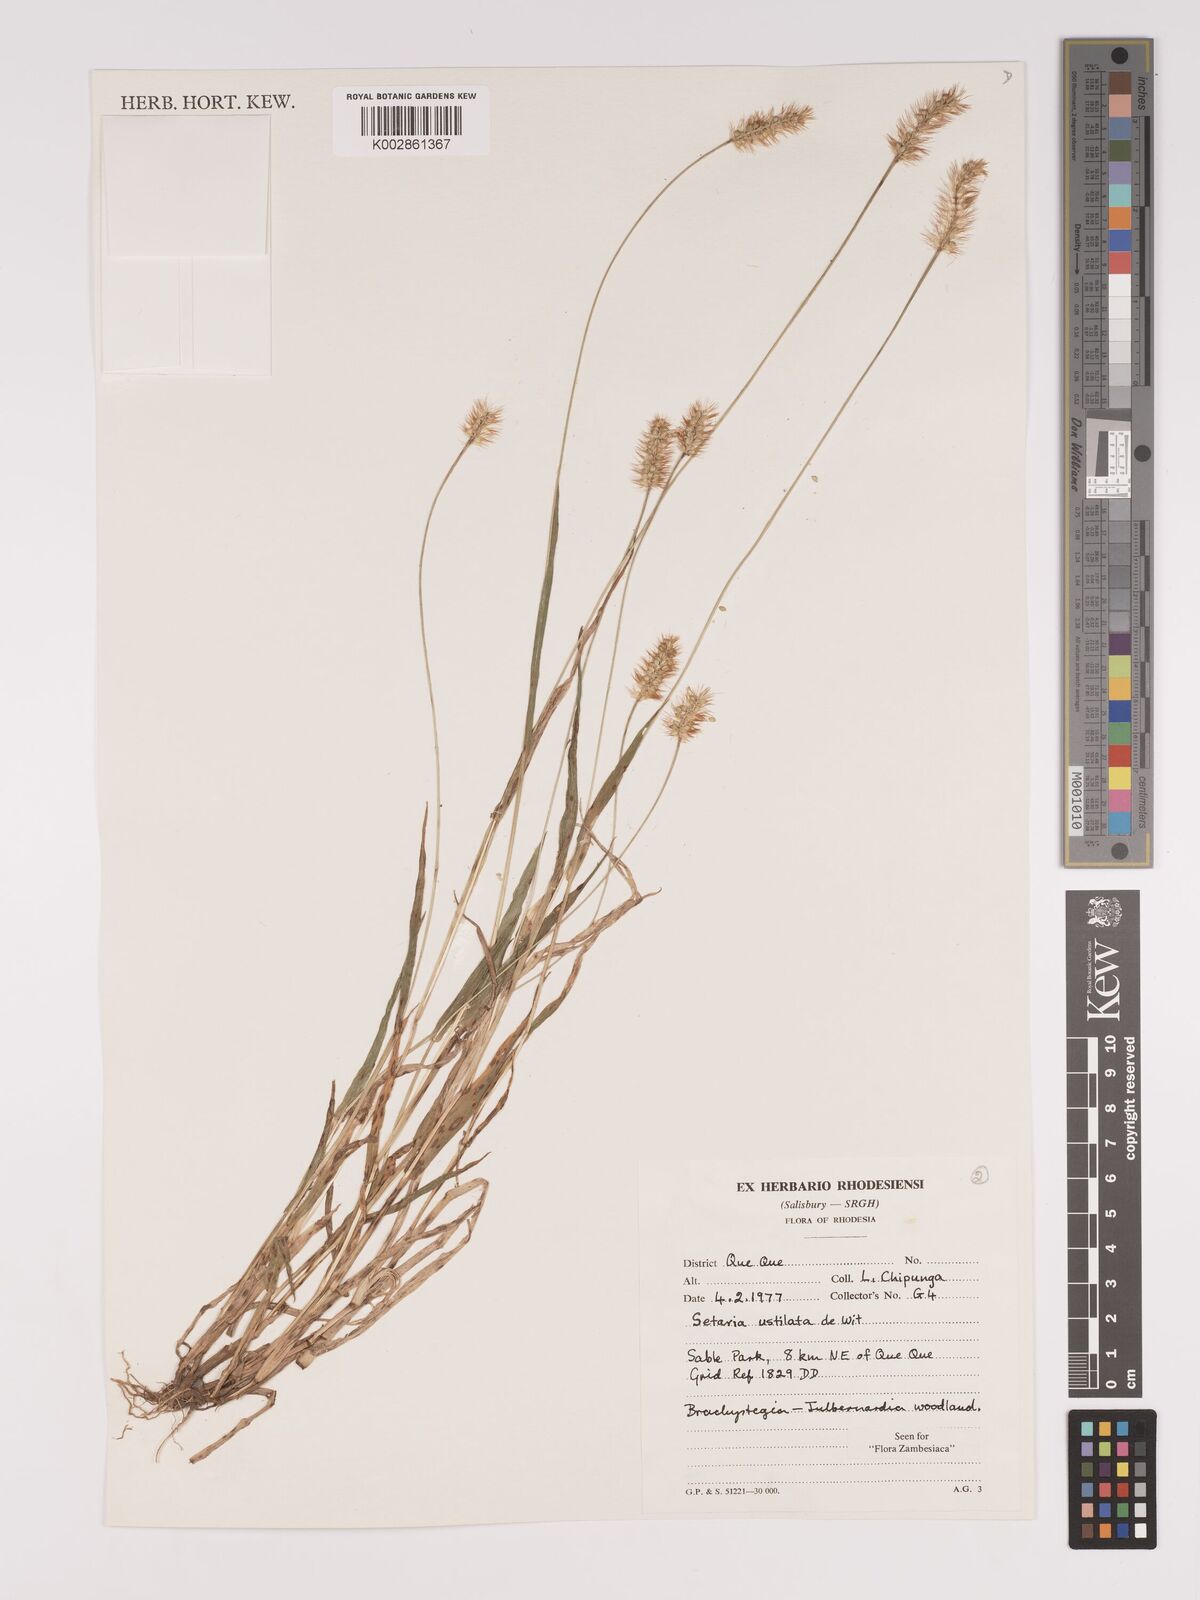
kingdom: Plantae
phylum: Tracheophyta
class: Liliopsida
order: Poales
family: Poaceae
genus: Setaria
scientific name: Setaria pumila
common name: Yellow bristle-grass
